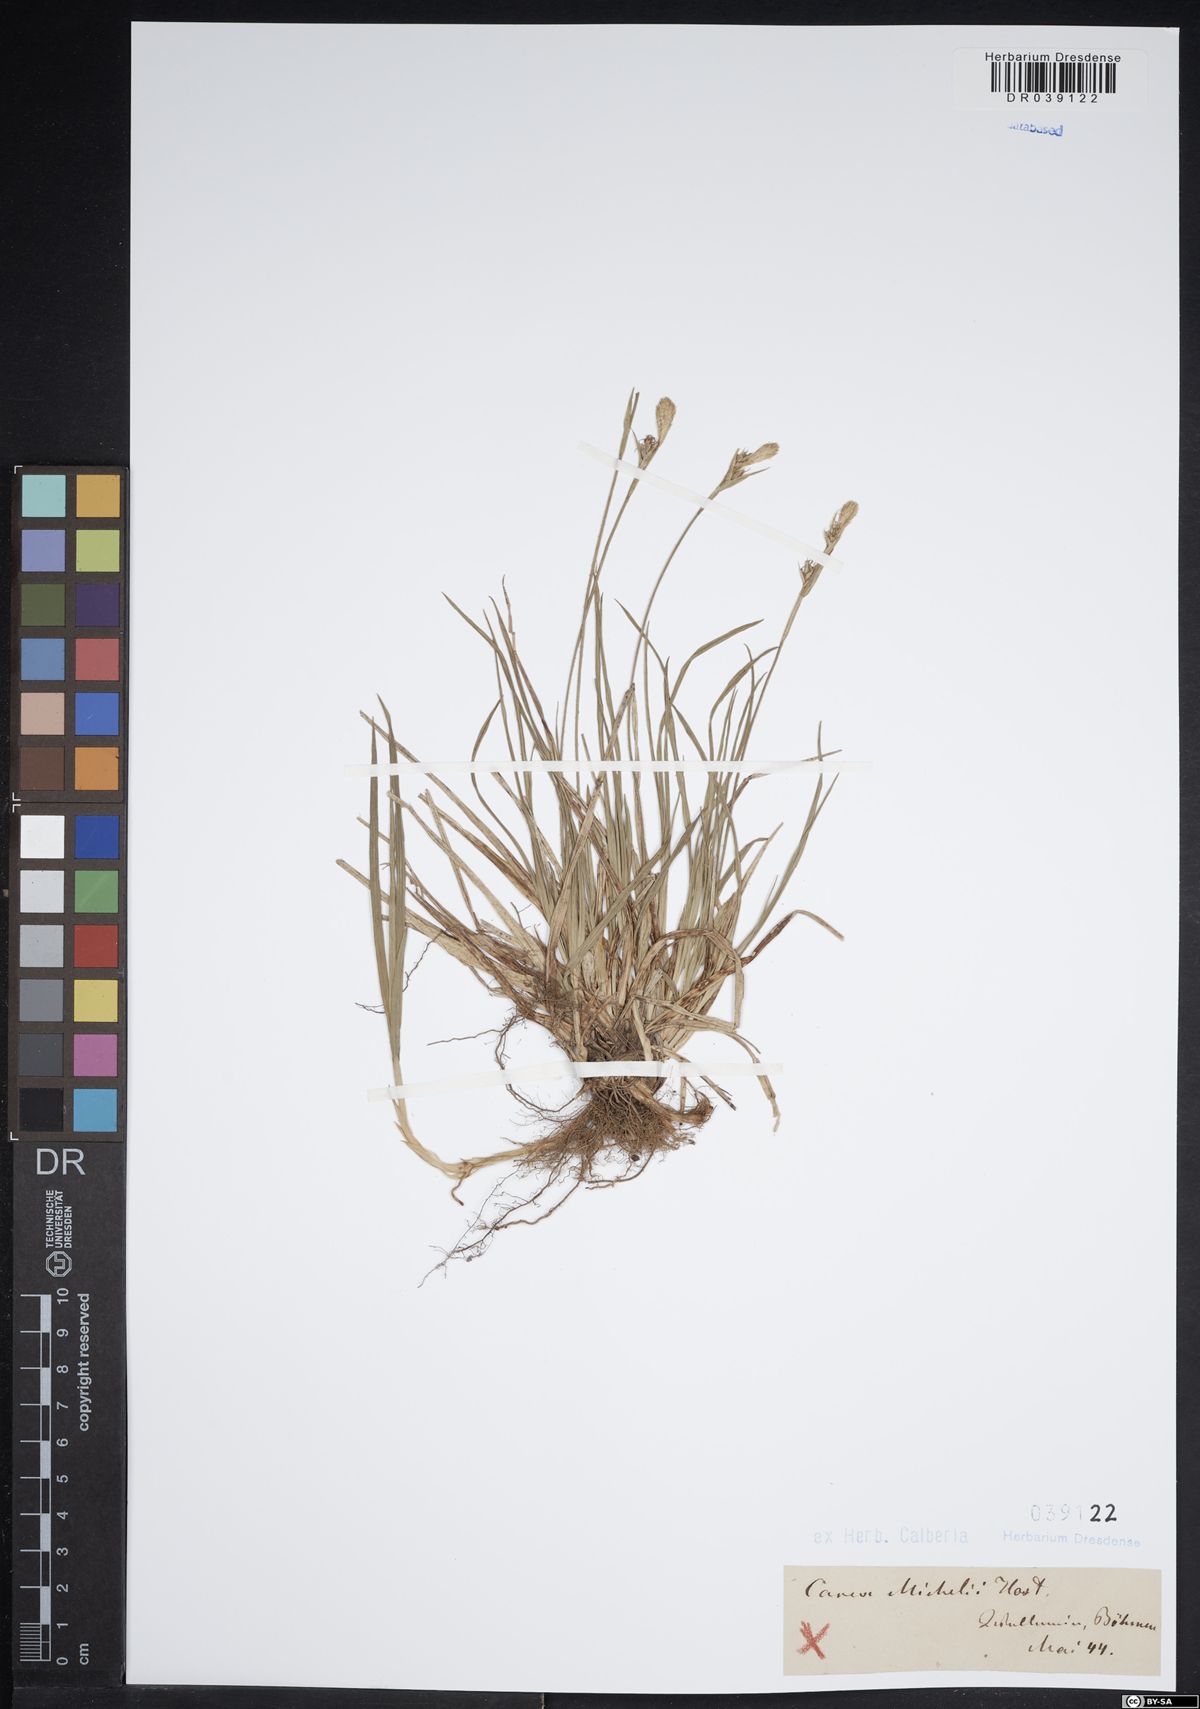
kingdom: Plantae
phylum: Tracheophyta
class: Liliopsida
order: Poales
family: Cyperaceae
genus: Carex
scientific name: Carex michelii
